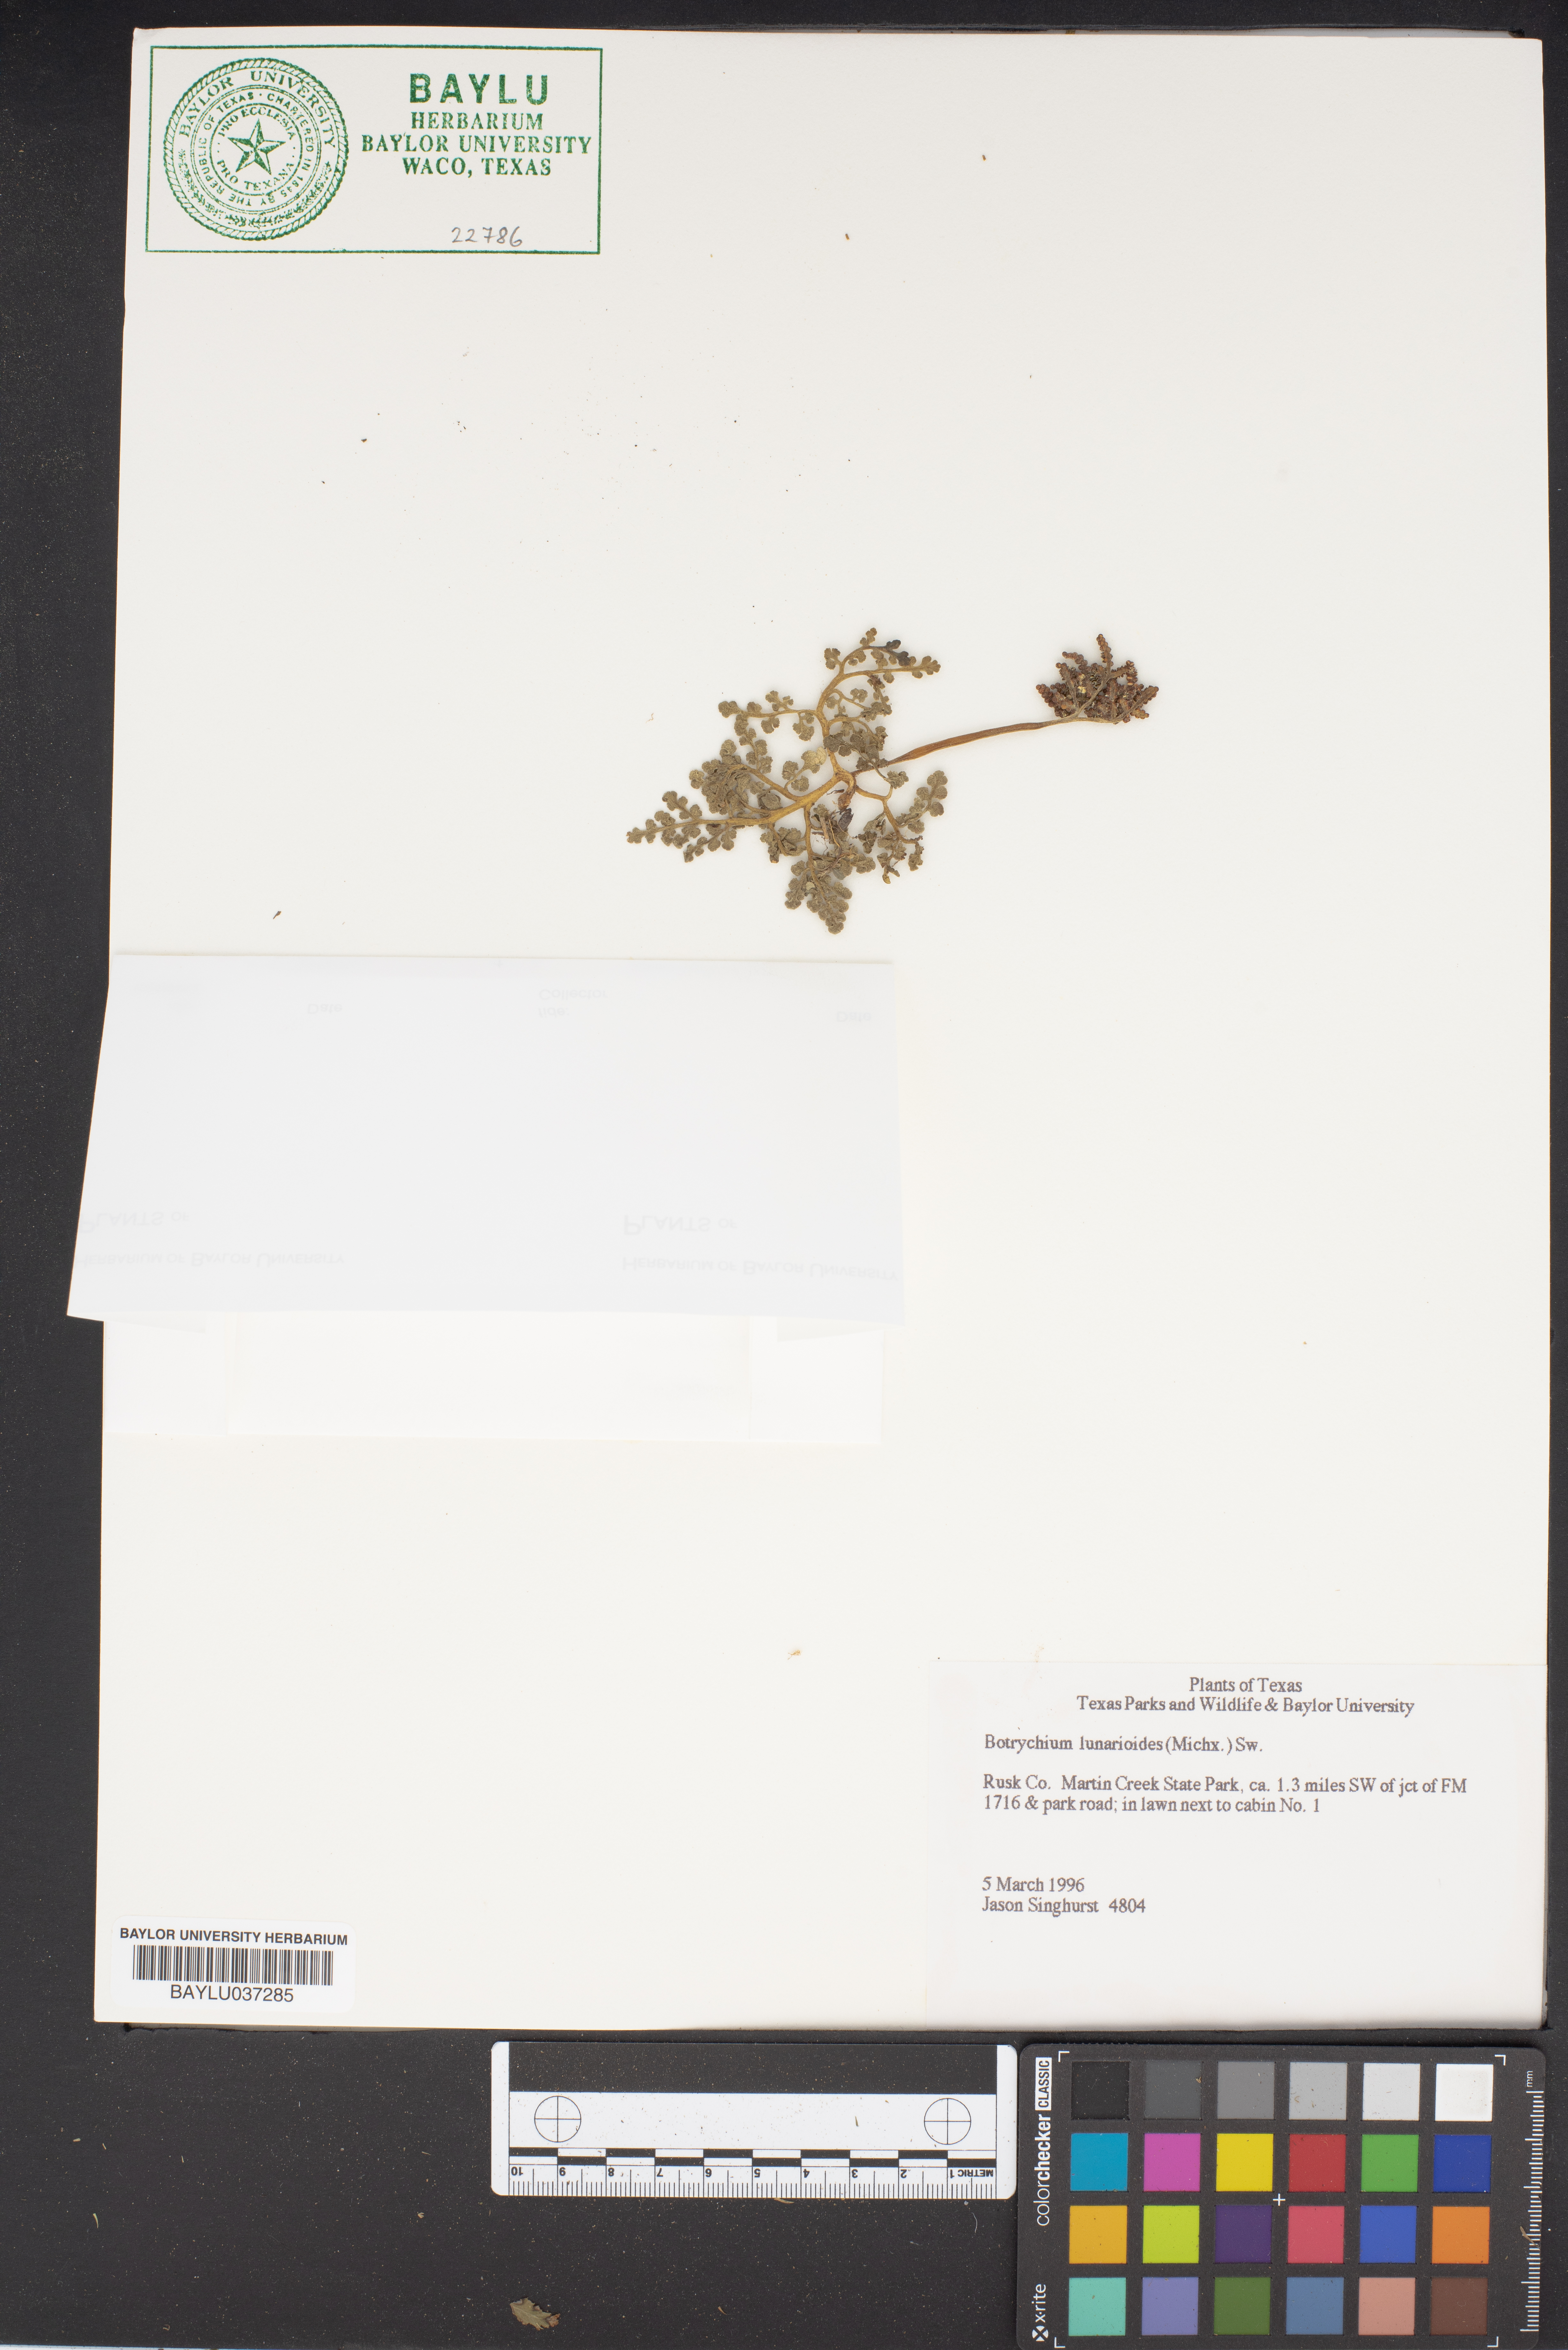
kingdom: Plantae
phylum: Tracheophyta
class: Polypodiopsida
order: Ophioglossales
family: Ophioglossaceae
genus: Sceptridium
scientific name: Sceptridium lunarioides
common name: Prostrate grapefern
